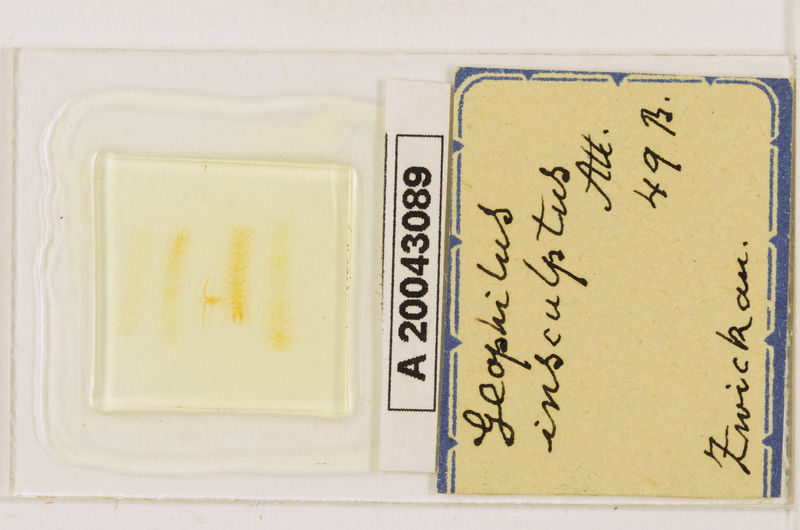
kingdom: Animalia
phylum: Arthropoda
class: Chilopoda
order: Geophilomorpha
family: Geophilidae
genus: Geophilus
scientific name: Geophilus insculptus
